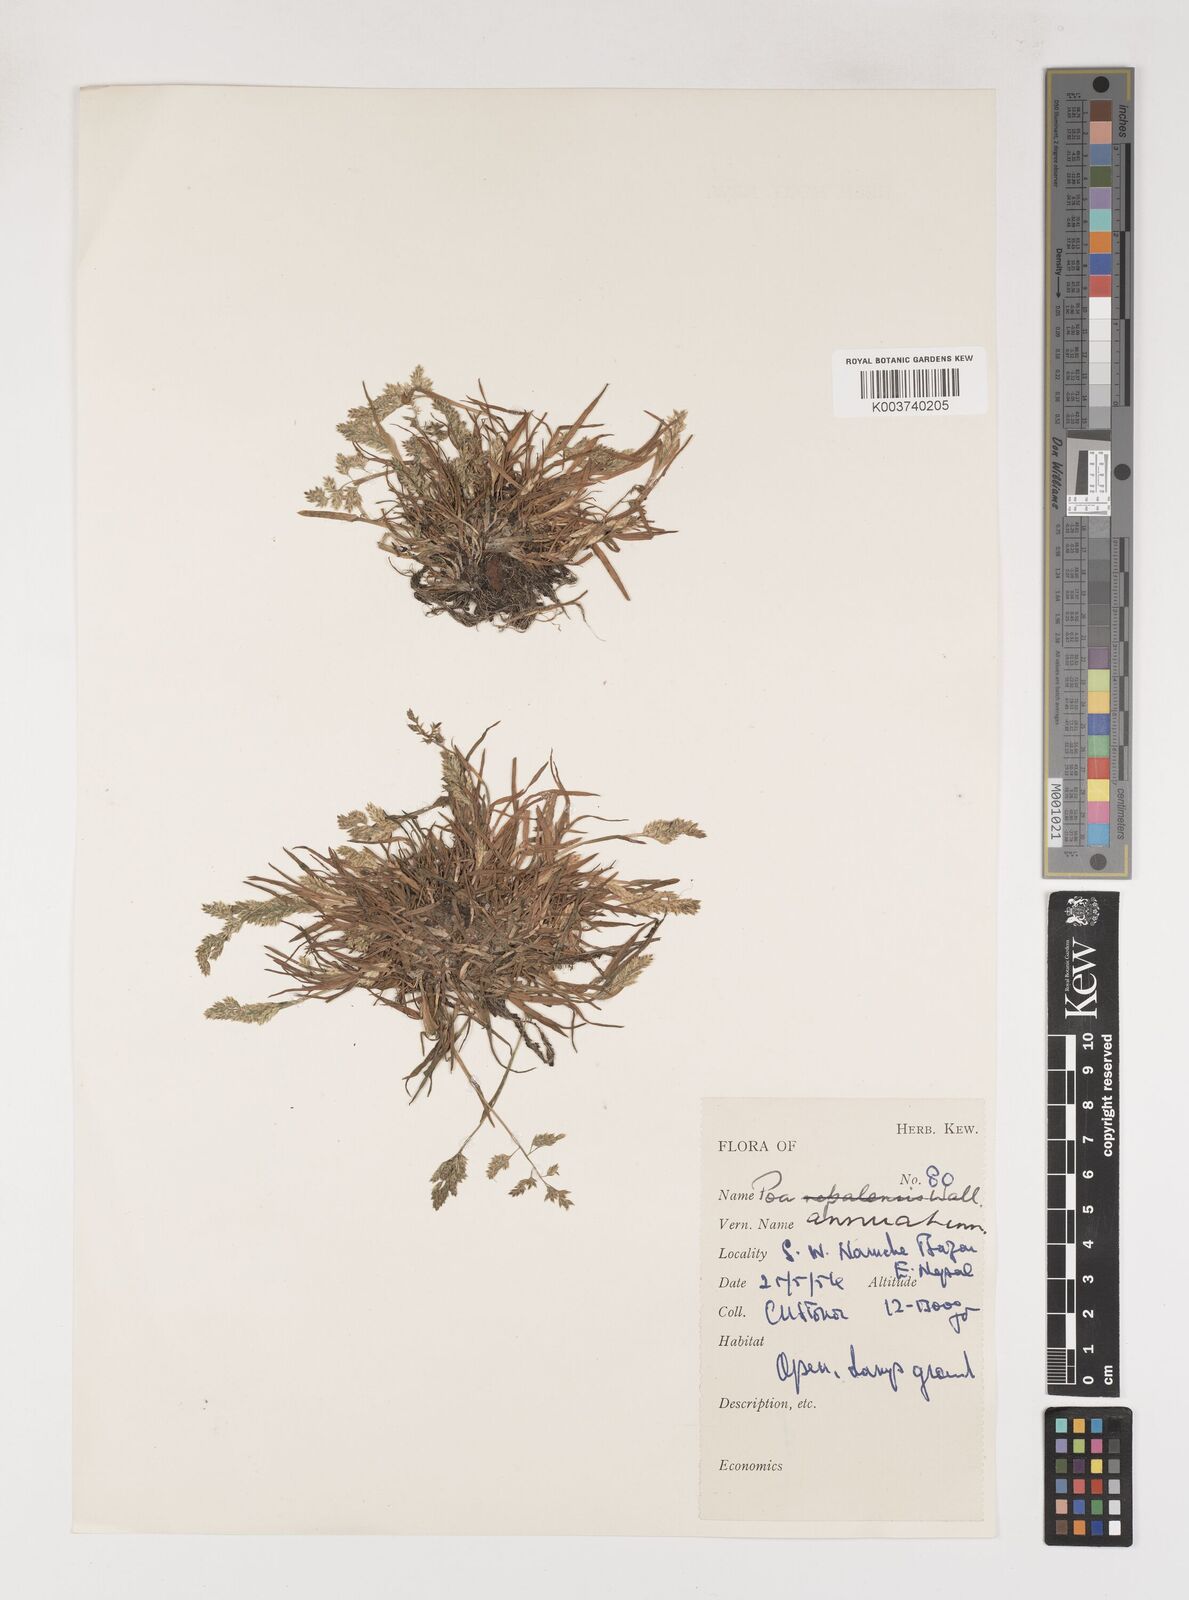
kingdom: Plantae
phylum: Tracheophyta
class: Liliopsida
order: Poales
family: Poaceae
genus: Poa
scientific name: Poa annua
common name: Annual bluegrass
